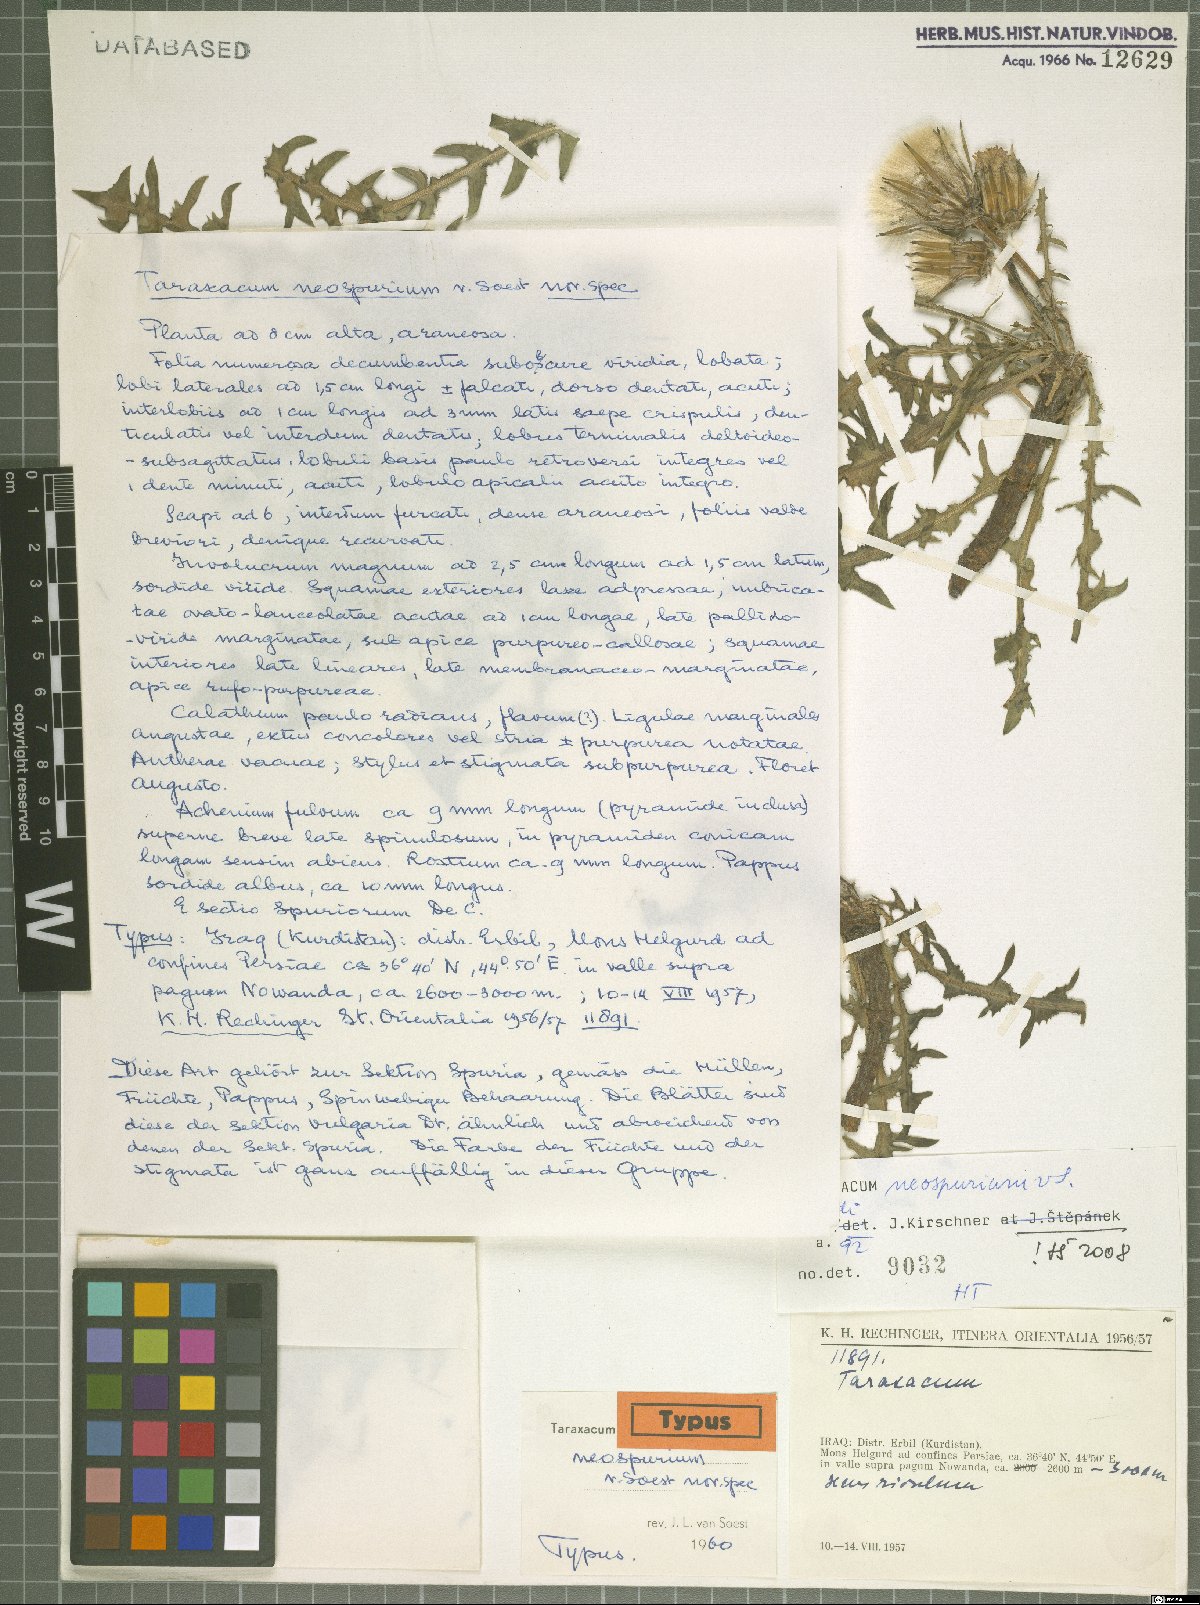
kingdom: Plantae
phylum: Tracheophyta
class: Magnoliopsida
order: Asterales
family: Asteraceae
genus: Taraxacum
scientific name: Taraxacum neospurium
